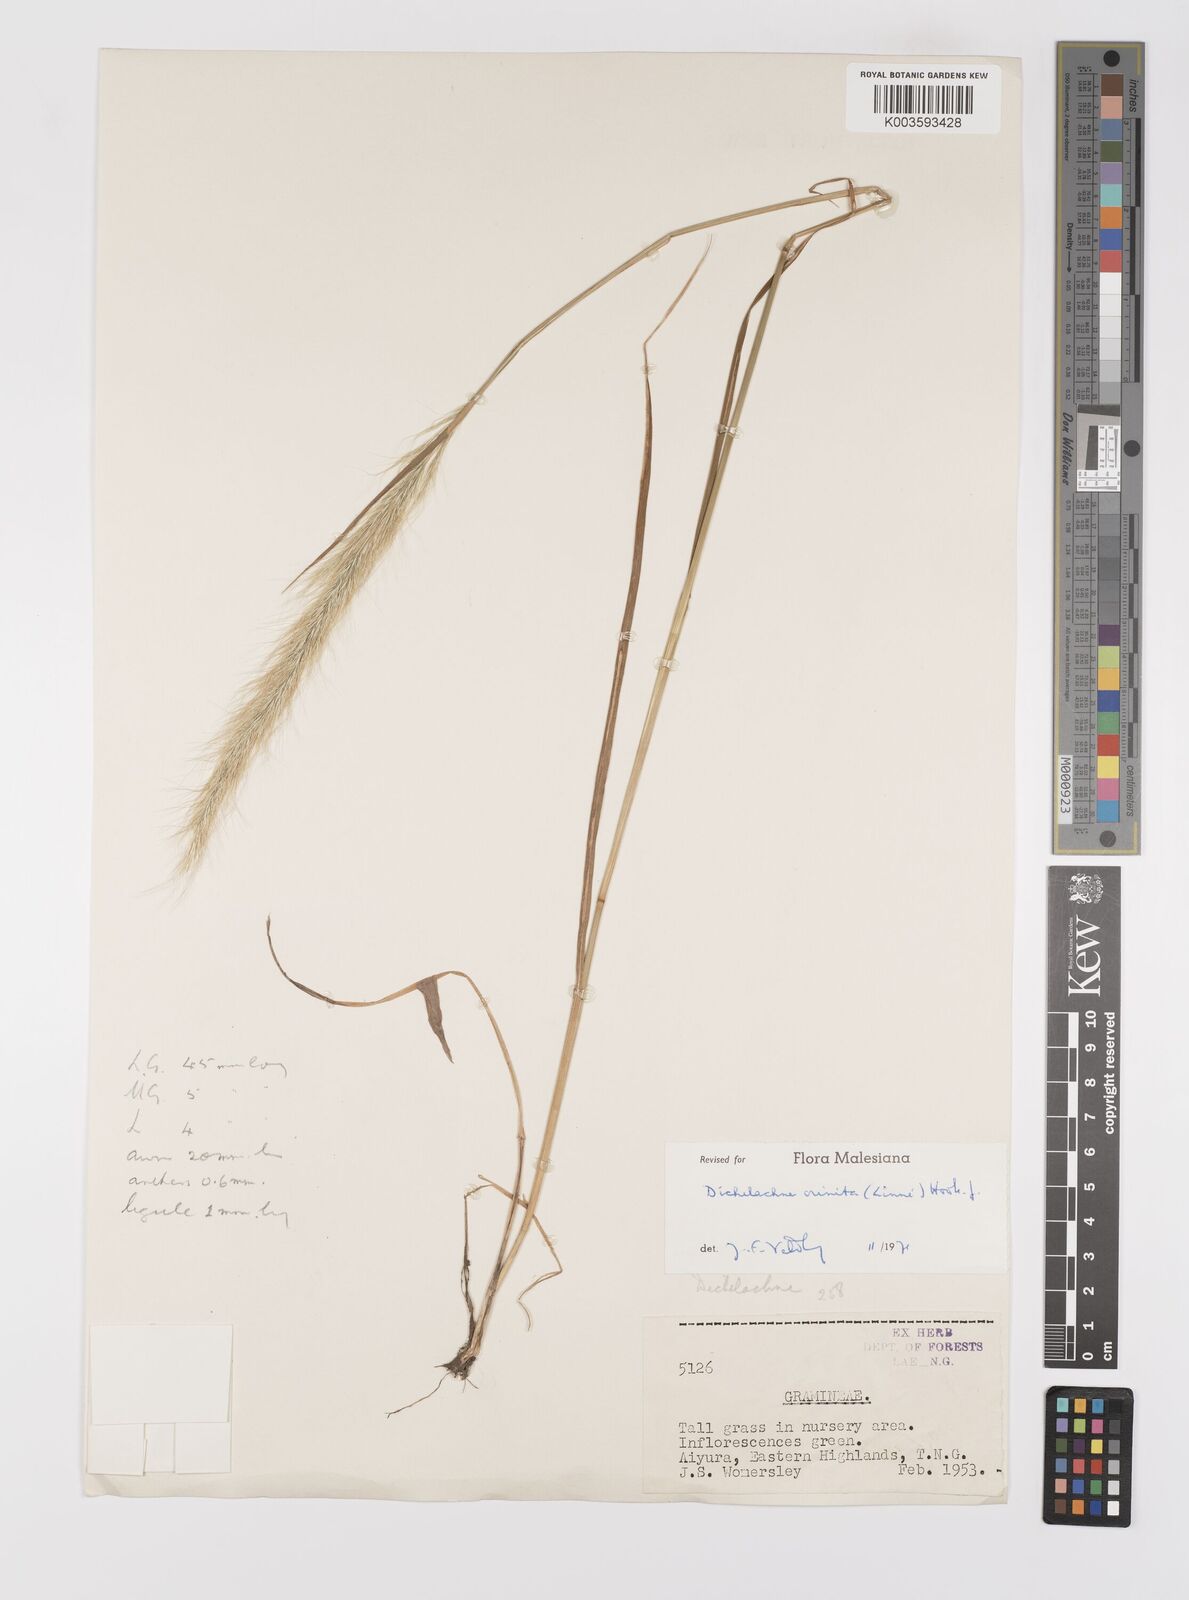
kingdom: Plantae
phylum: Tracheophyta
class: Liliopsida
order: Poales
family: Poaceae
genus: Dichelachne
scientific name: Dichelachne crinita
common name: Clovenfoot plumegrass
